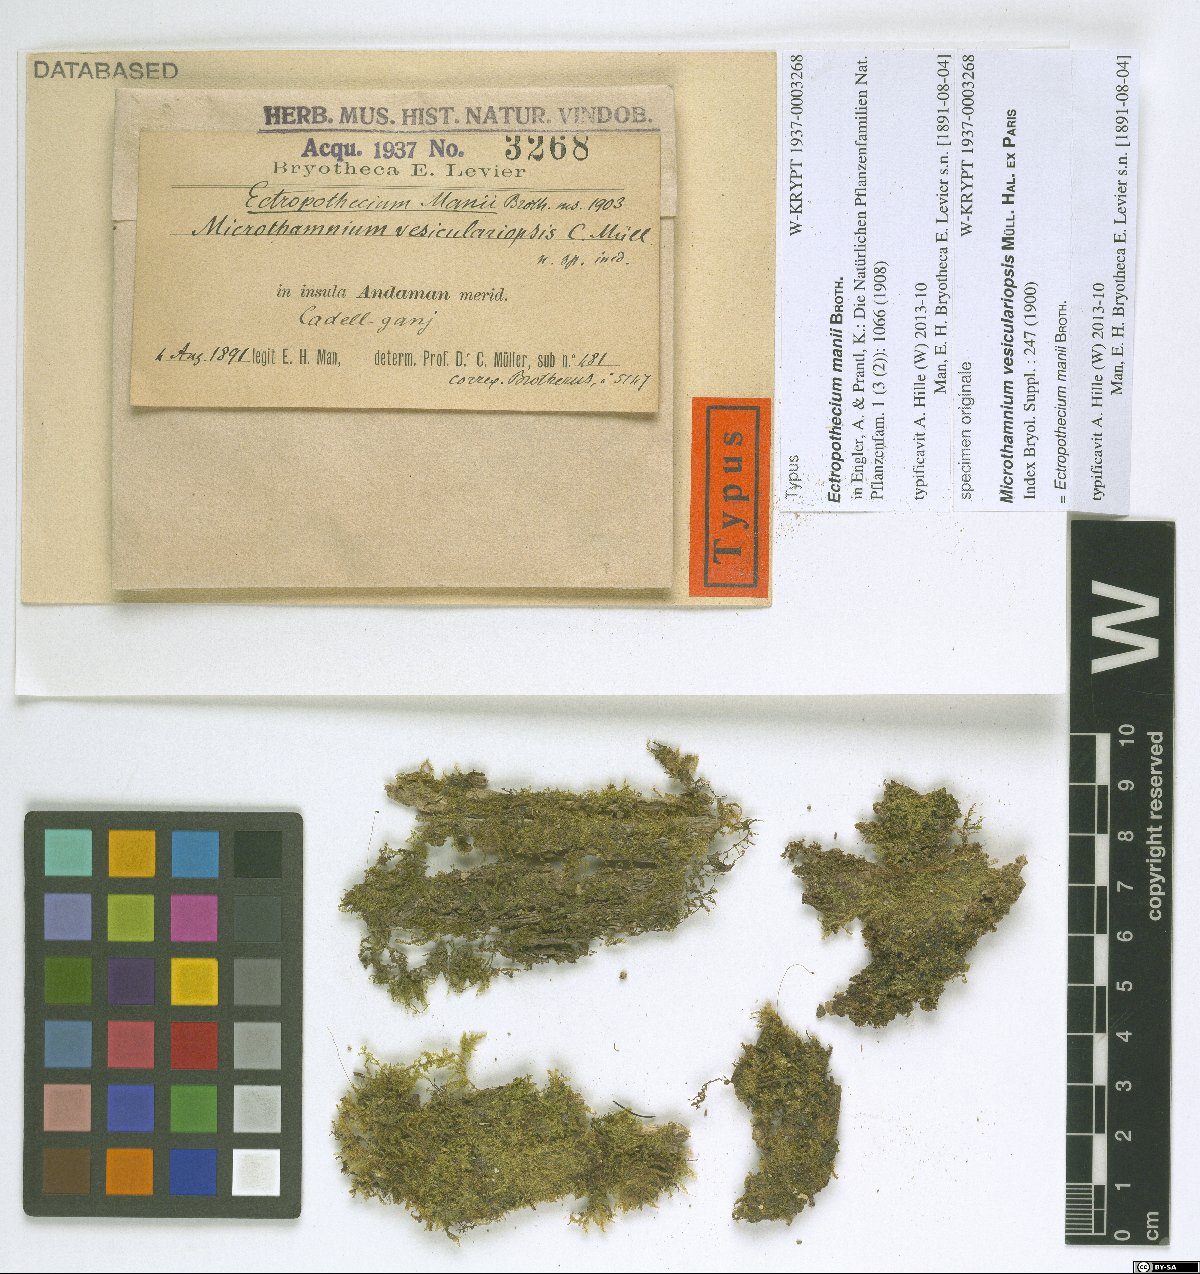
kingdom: Plantae
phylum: Bryophyta
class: Bryopsida
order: Hypnales
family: Hypnaceae
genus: Ectropothecium
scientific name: Ectropothecium manii
